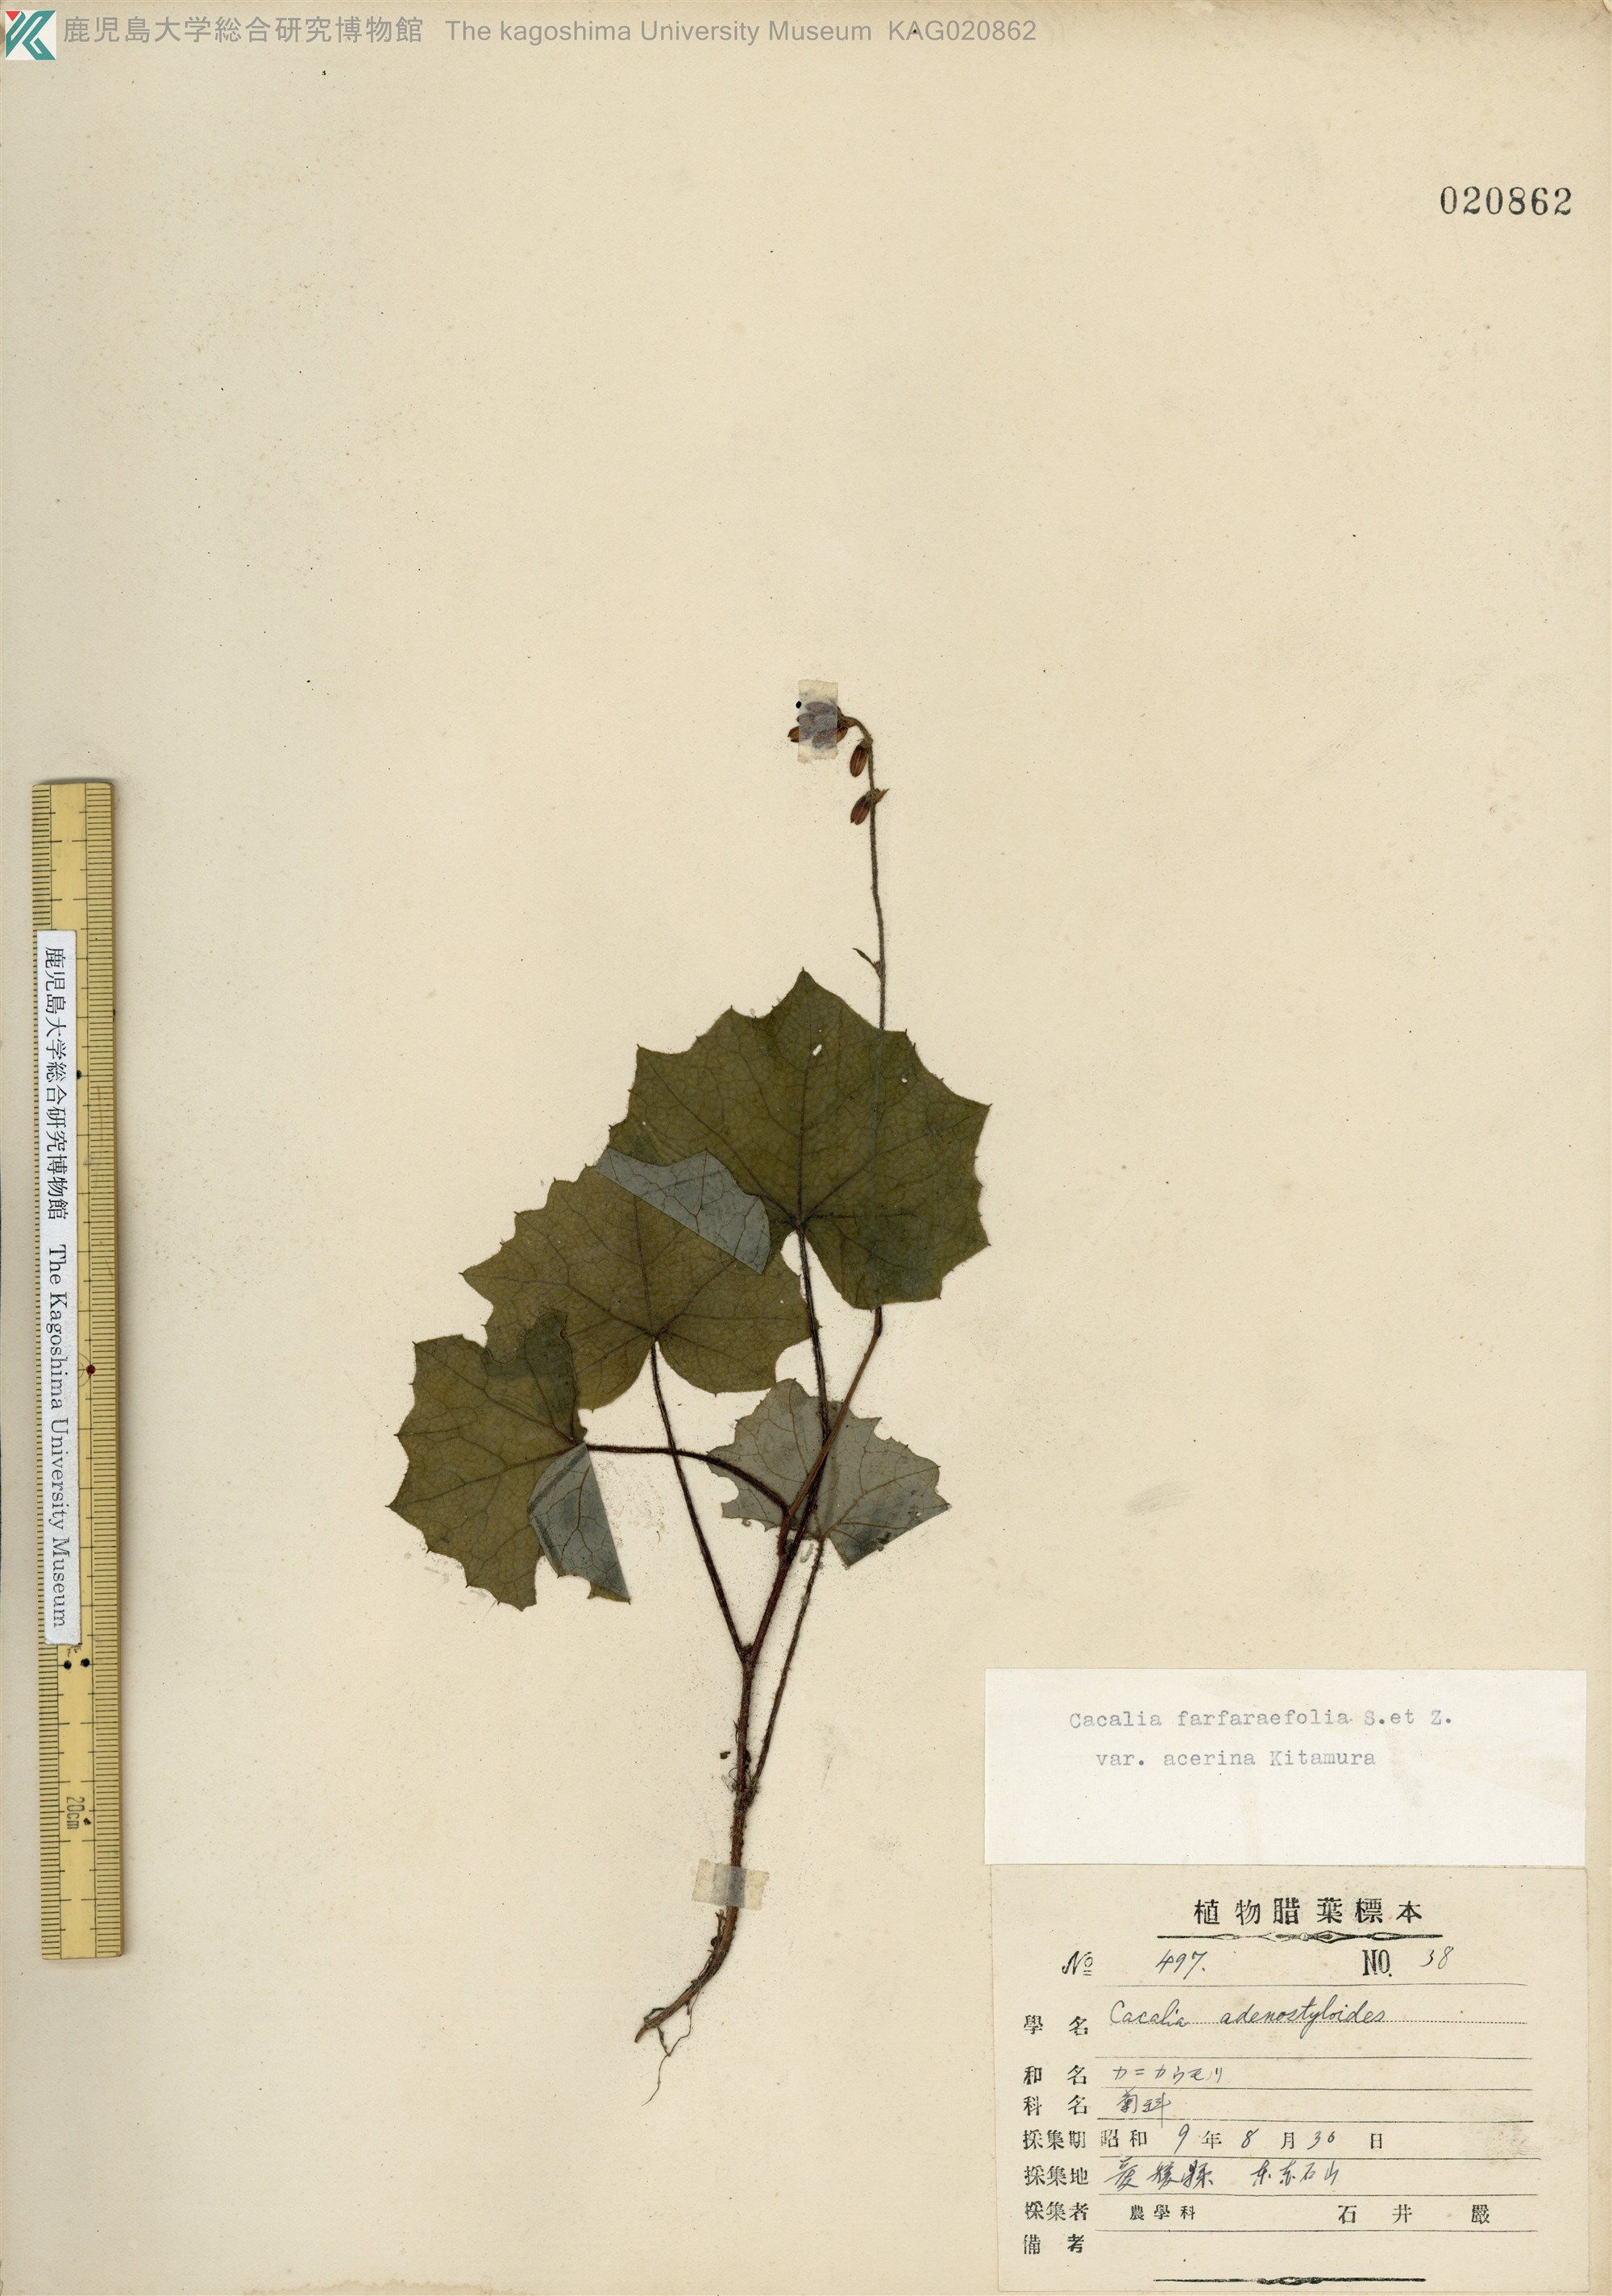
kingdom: Plantae
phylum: Tracheophyta
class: Magnoliopsida
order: Asterales
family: Asteraceae
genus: Parasenecio
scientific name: Parasenecio farfarifolius
